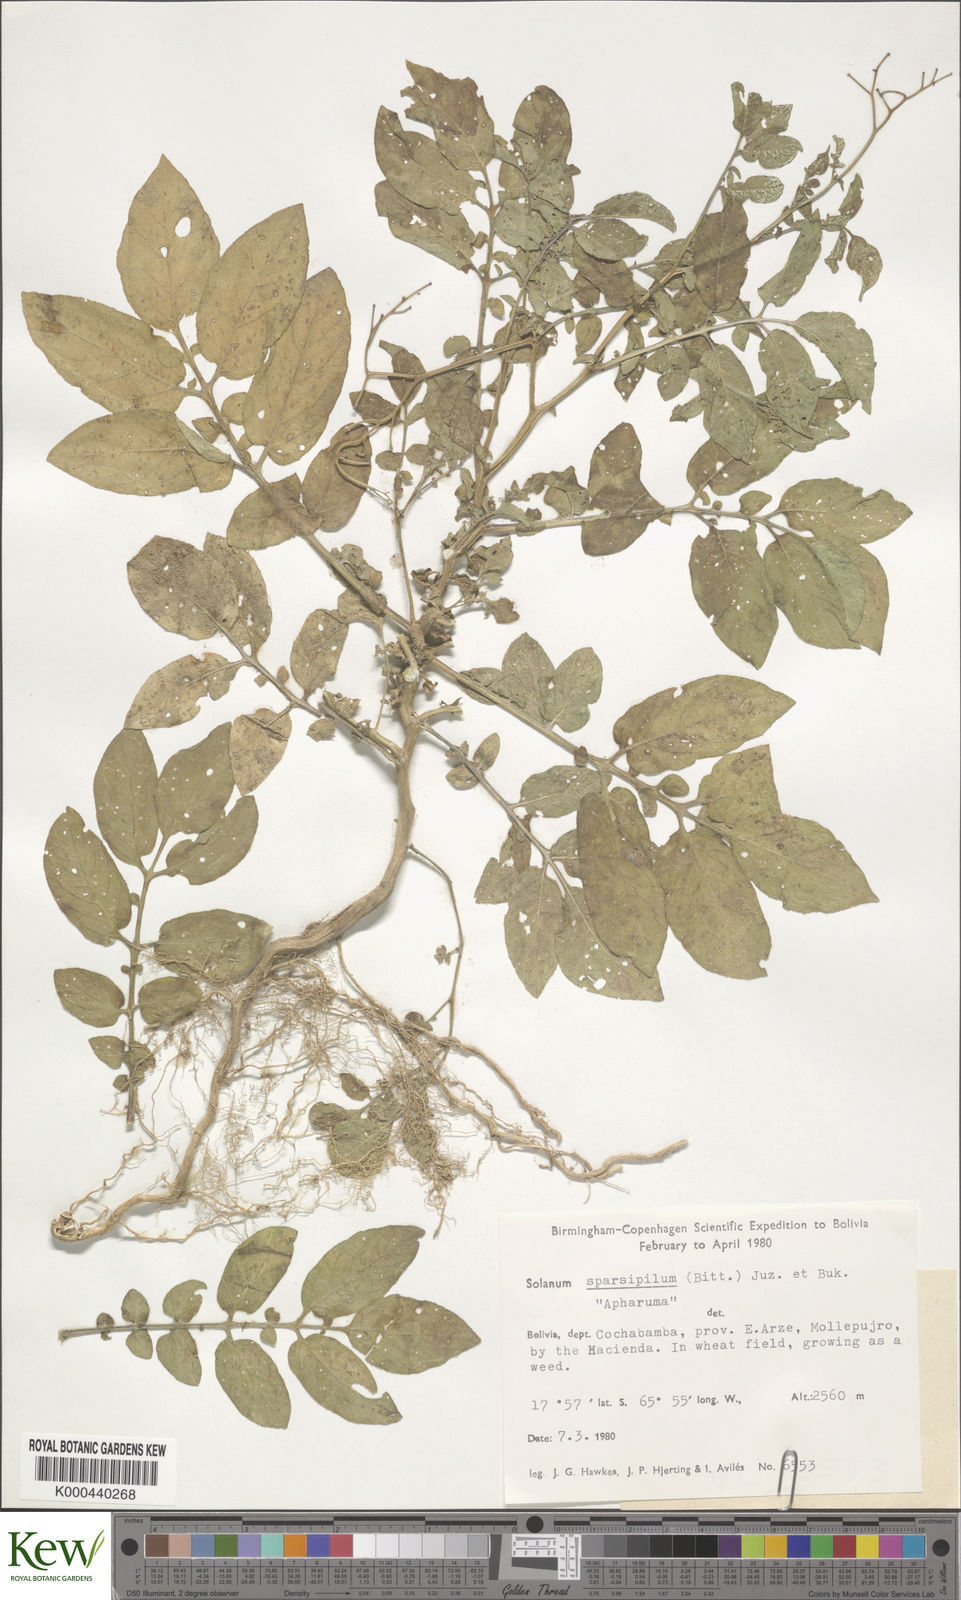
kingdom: Plantae
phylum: Tracheophyta
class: Magnoliopsida
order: Solanales
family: Solanaceae
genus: Solanum
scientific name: Solanum brevicaule
